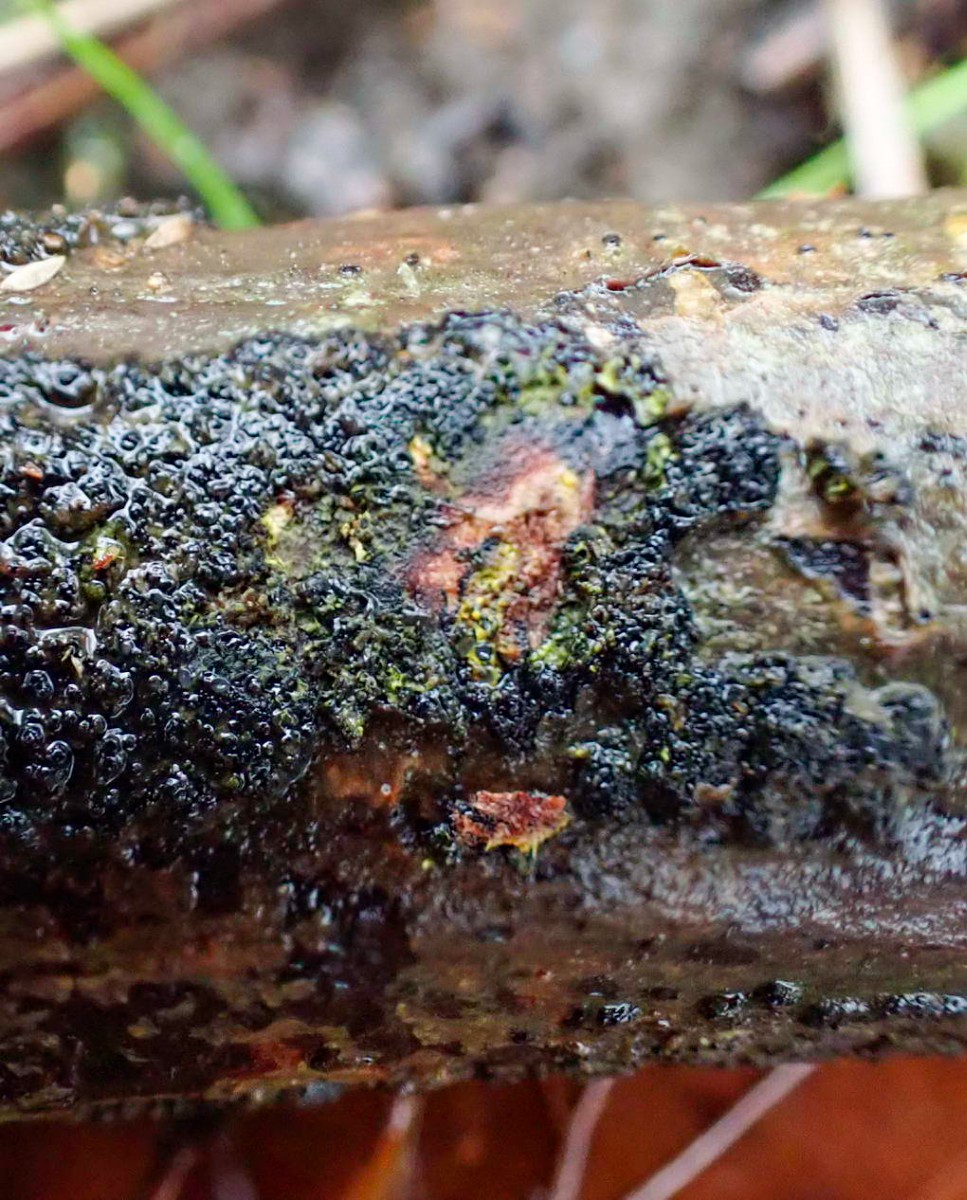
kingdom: Fungi
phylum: Ascomycota
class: Sordariomycetes
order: Xylariales
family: Diatrypaceae
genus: Eutypa
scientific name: Eutypa flavovirens
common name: grønkødet kulskorpe
